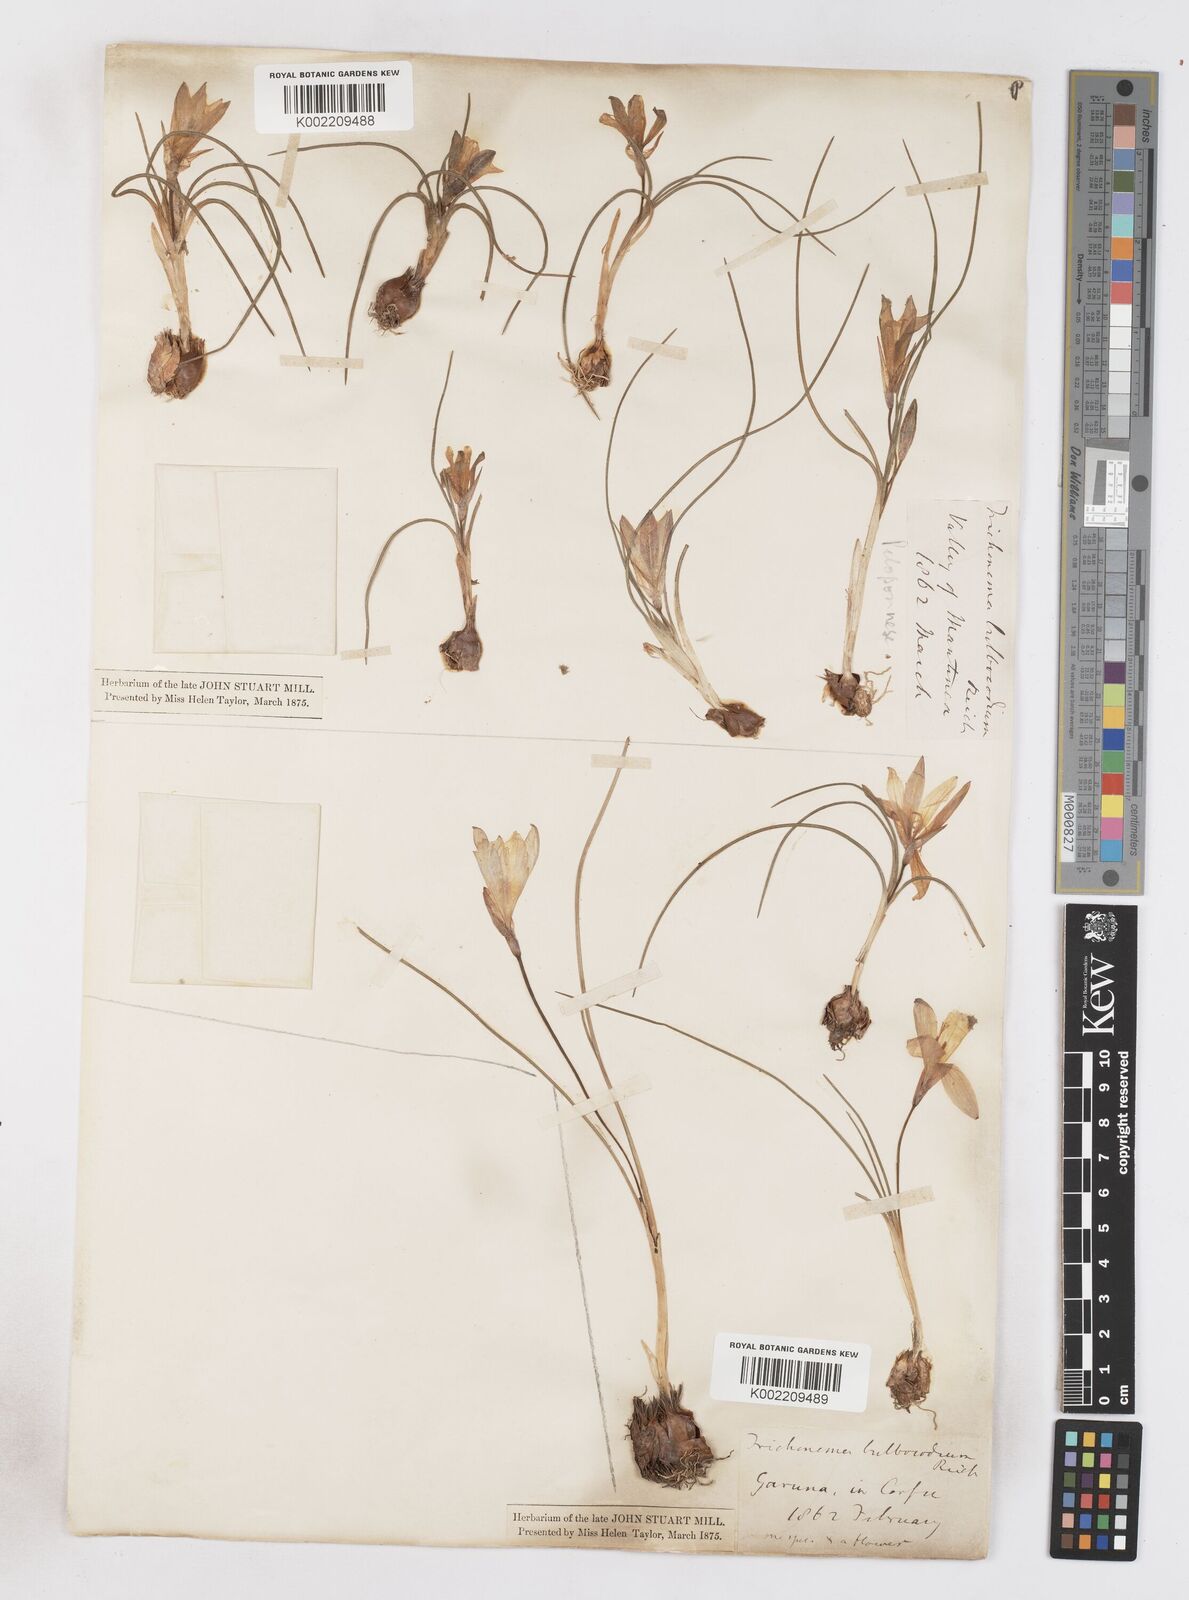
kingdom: Plantae
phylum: Tracheophyta
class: Liliopsida
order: Asparagales
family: Iridaceae
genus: Romulea
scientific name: Romulea bulbocodium
